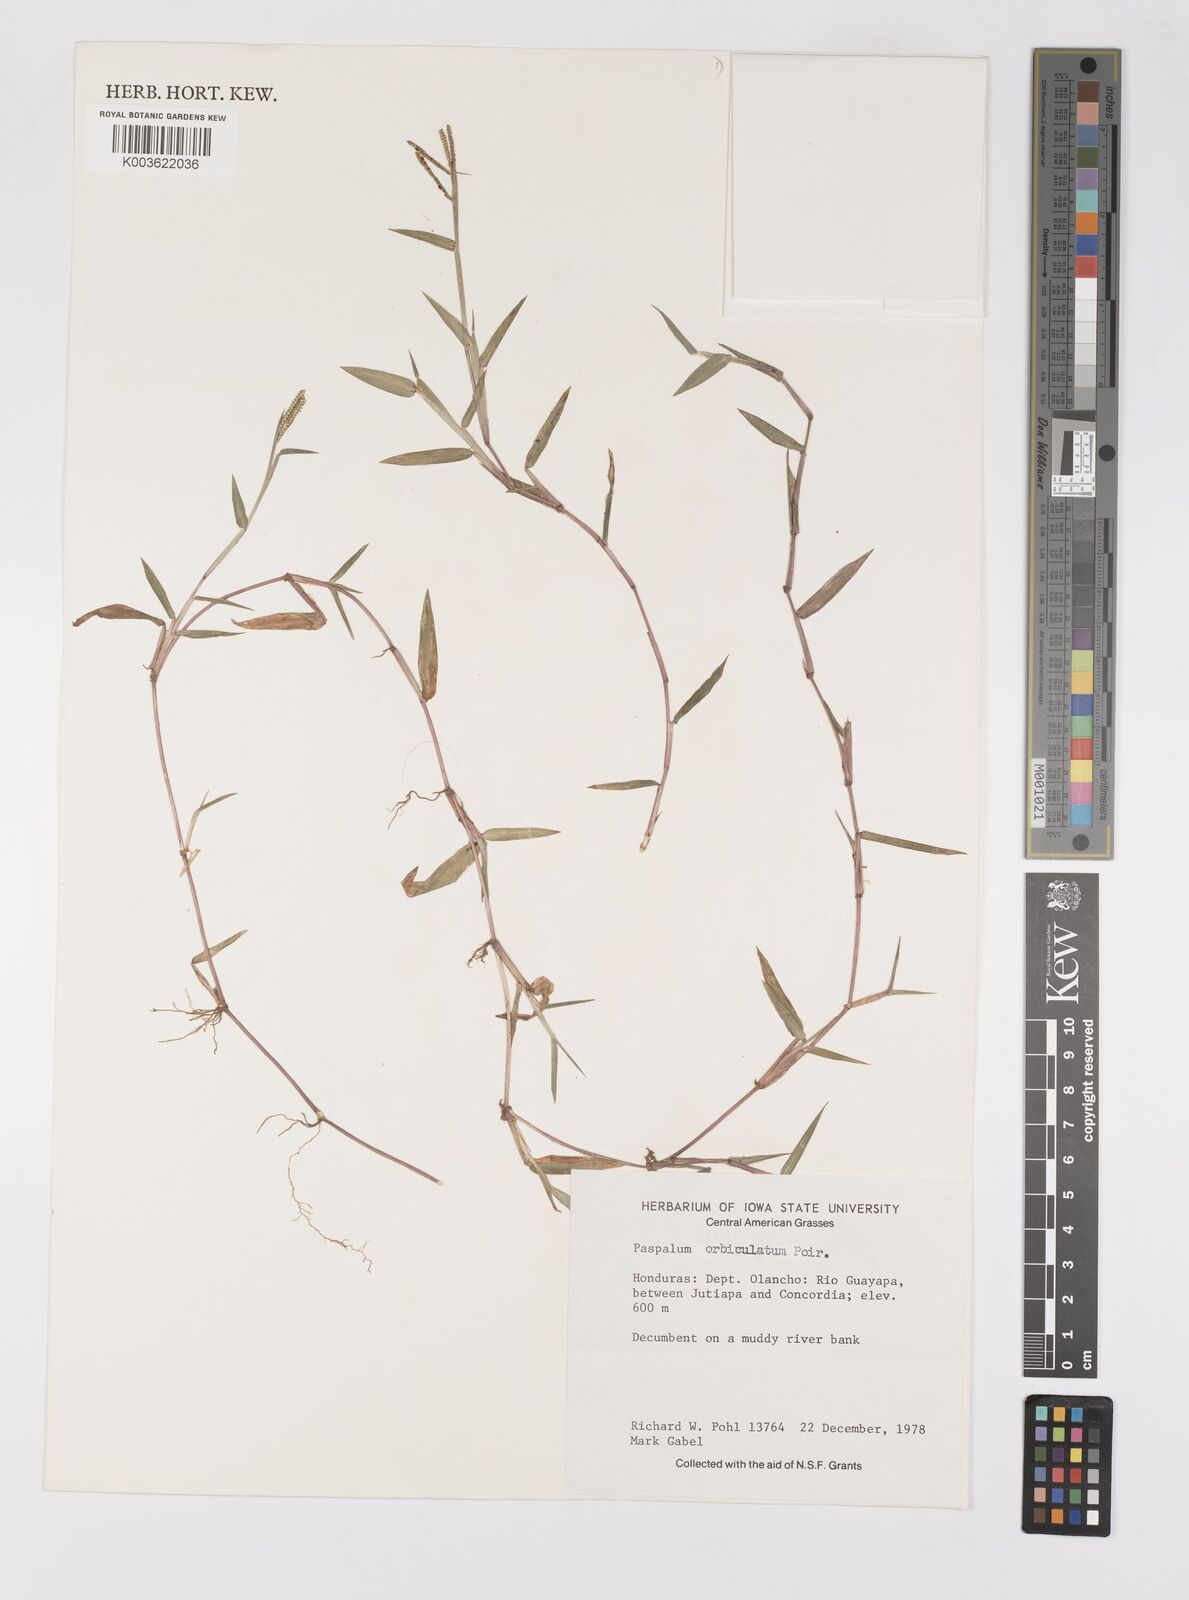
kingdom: Plantae
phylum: Tracheophyta
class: Liliopsida
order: Poales
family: Poaceae
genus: Paspalum
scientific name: Paspalum orbiculatum
